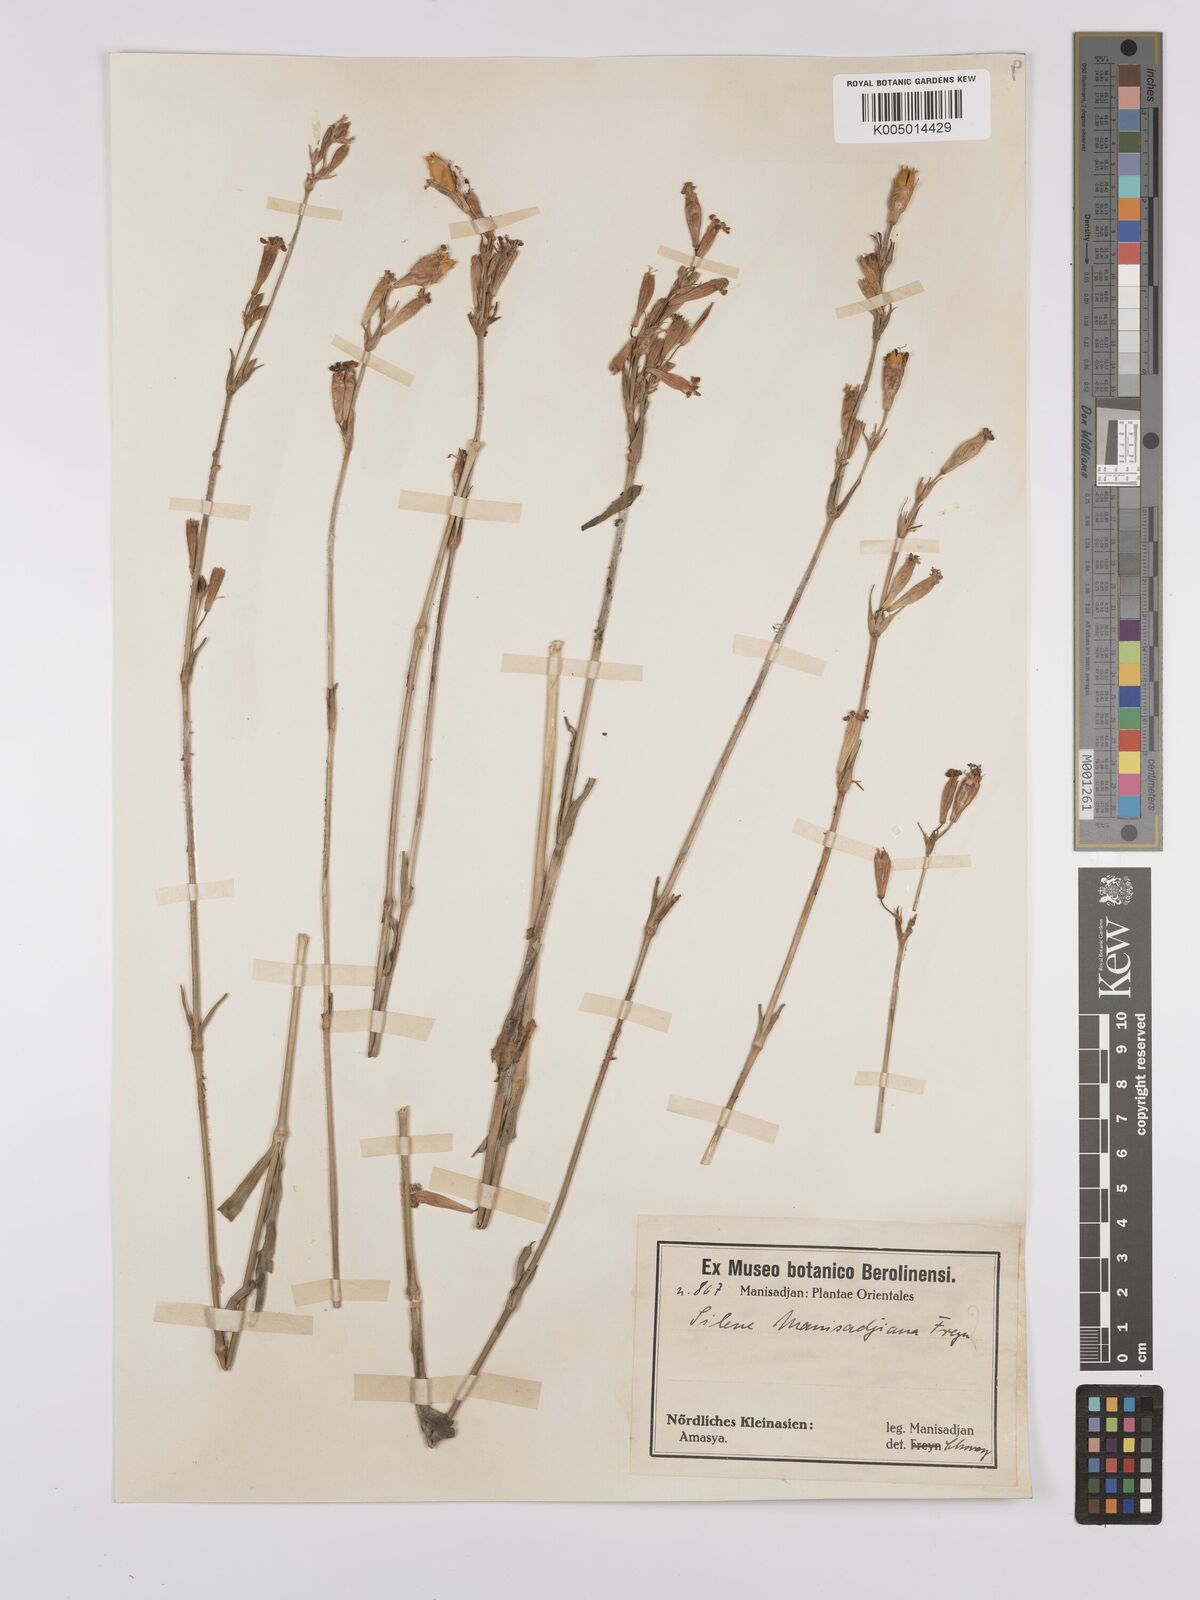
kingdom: Plantae
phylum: Tracheophyta
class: Magnoliopsida
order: Caryophyllales
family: Caryophyllaceae
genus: Silene
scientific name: Silene
